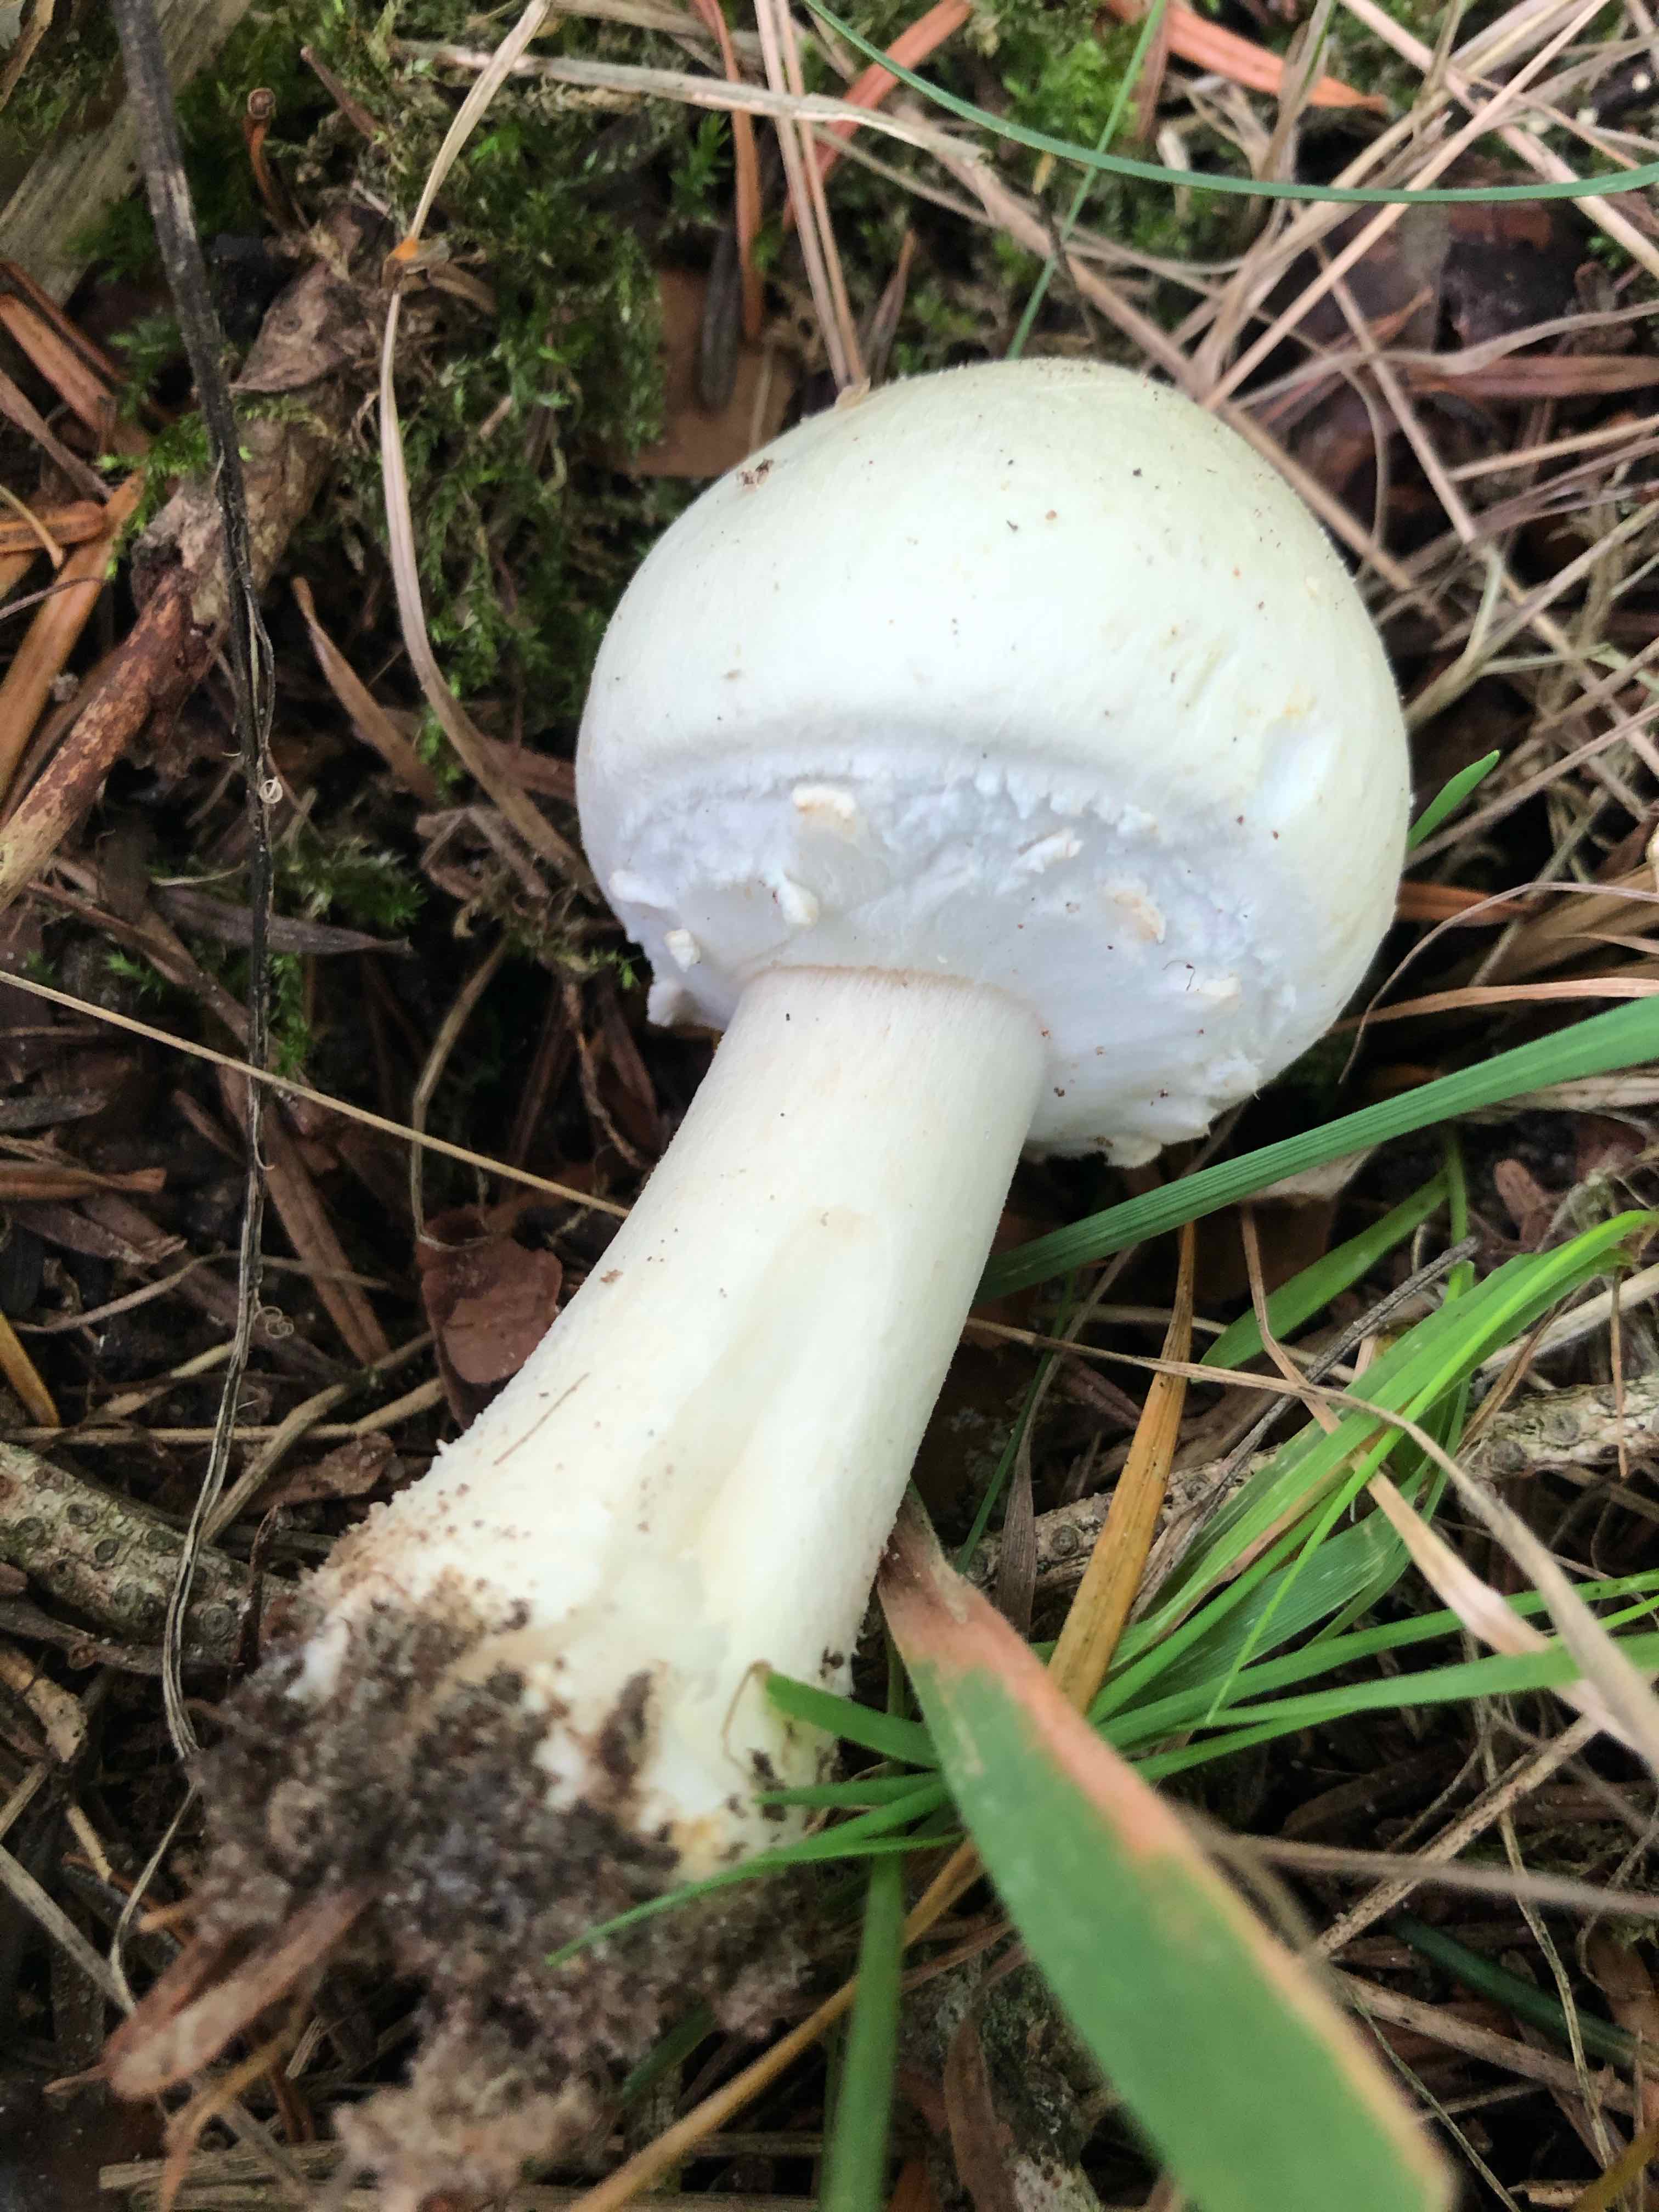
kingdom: Fungi
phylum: Basidiomycota
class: Agaricomycetes
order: Agaricales
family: Agaricaceae
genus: Agaricus
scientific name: Agaricus arvensis
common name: ager-champignon
